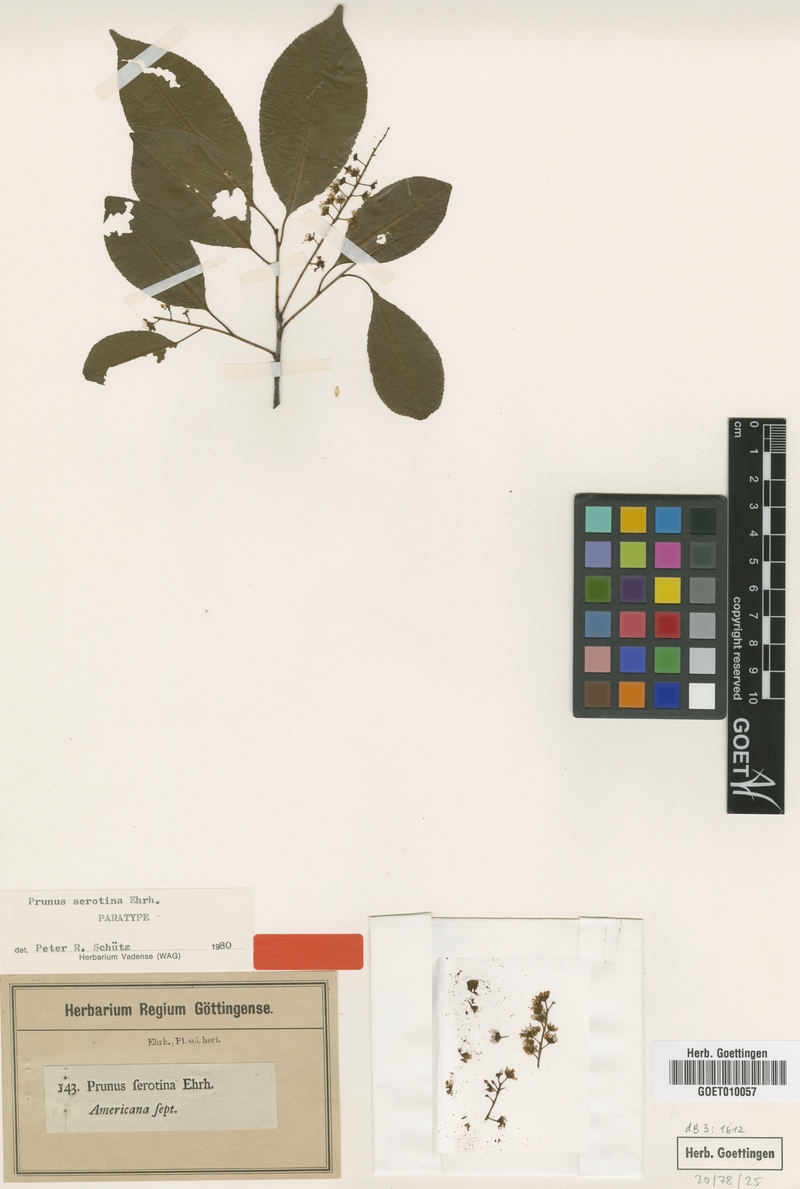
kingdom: Plantae
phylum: Tracheophyta
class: Magnoliopsida
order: Rosales
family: Rosaceae
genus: Prunus
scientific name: Prunus serotina
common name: Black cherry
